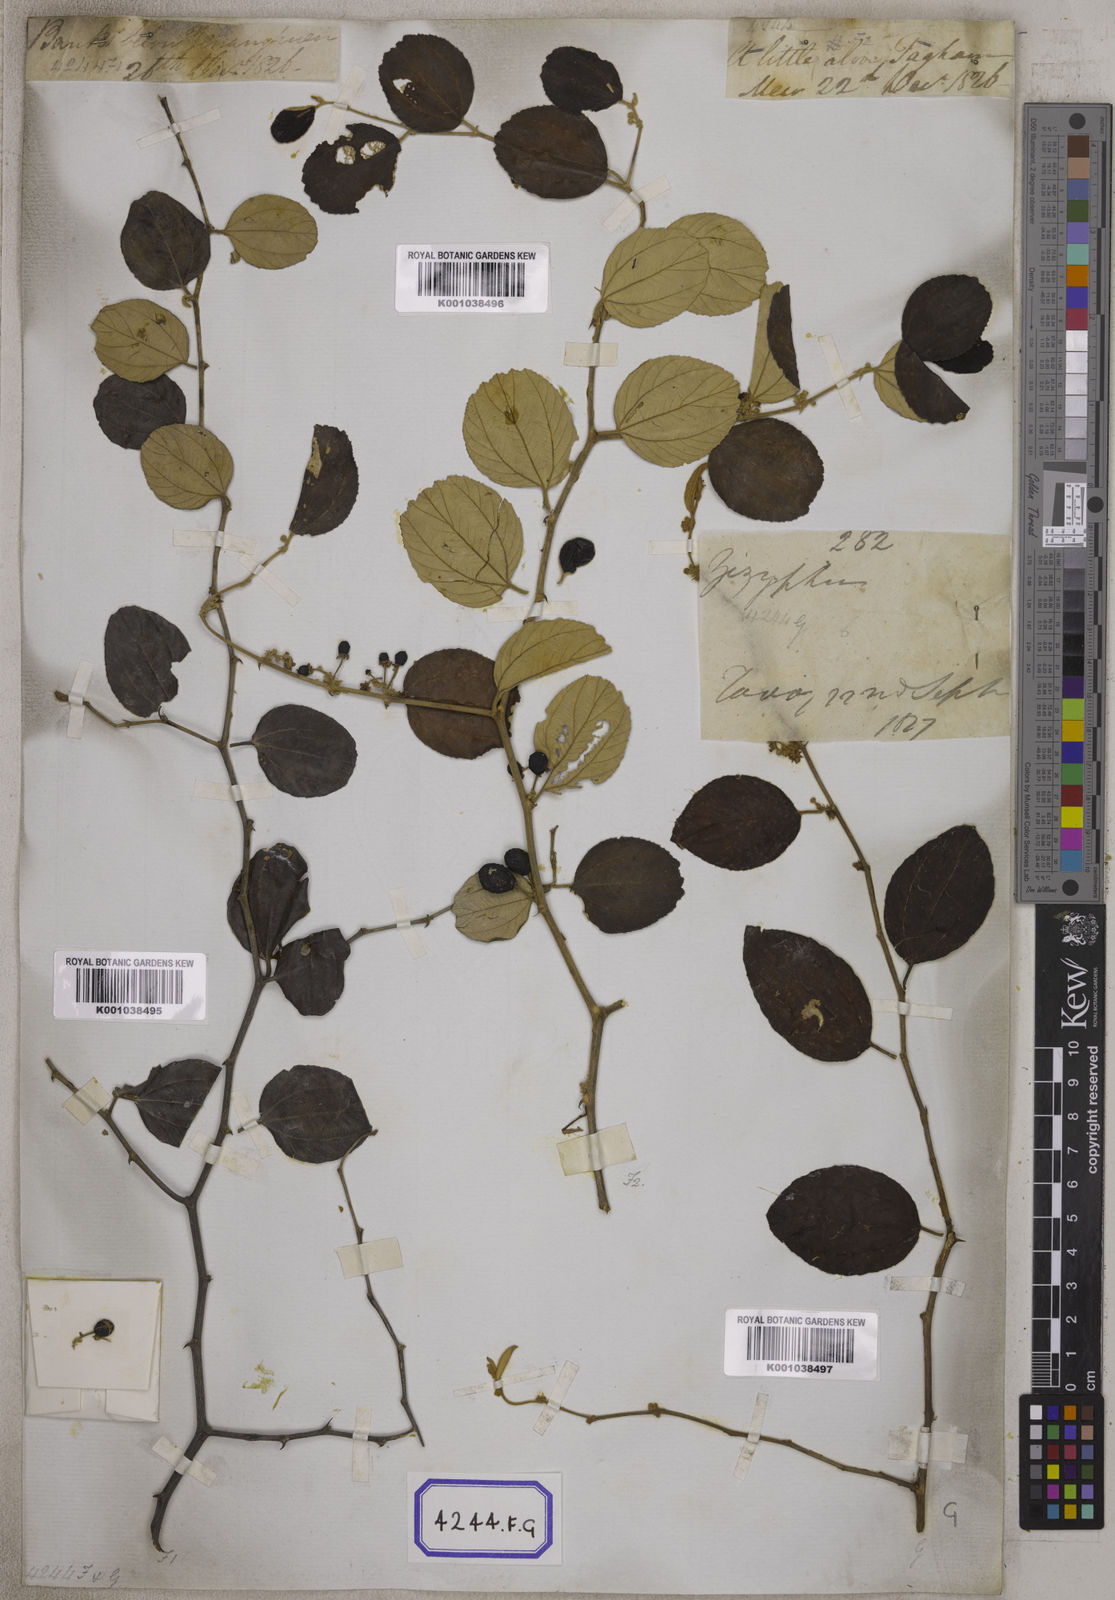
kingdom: Plantae
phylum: Tracheophyta
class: Magnoliopsida
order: Rosales
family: Rhamnaceae
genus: Ziziphus
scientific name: Ziziphus
